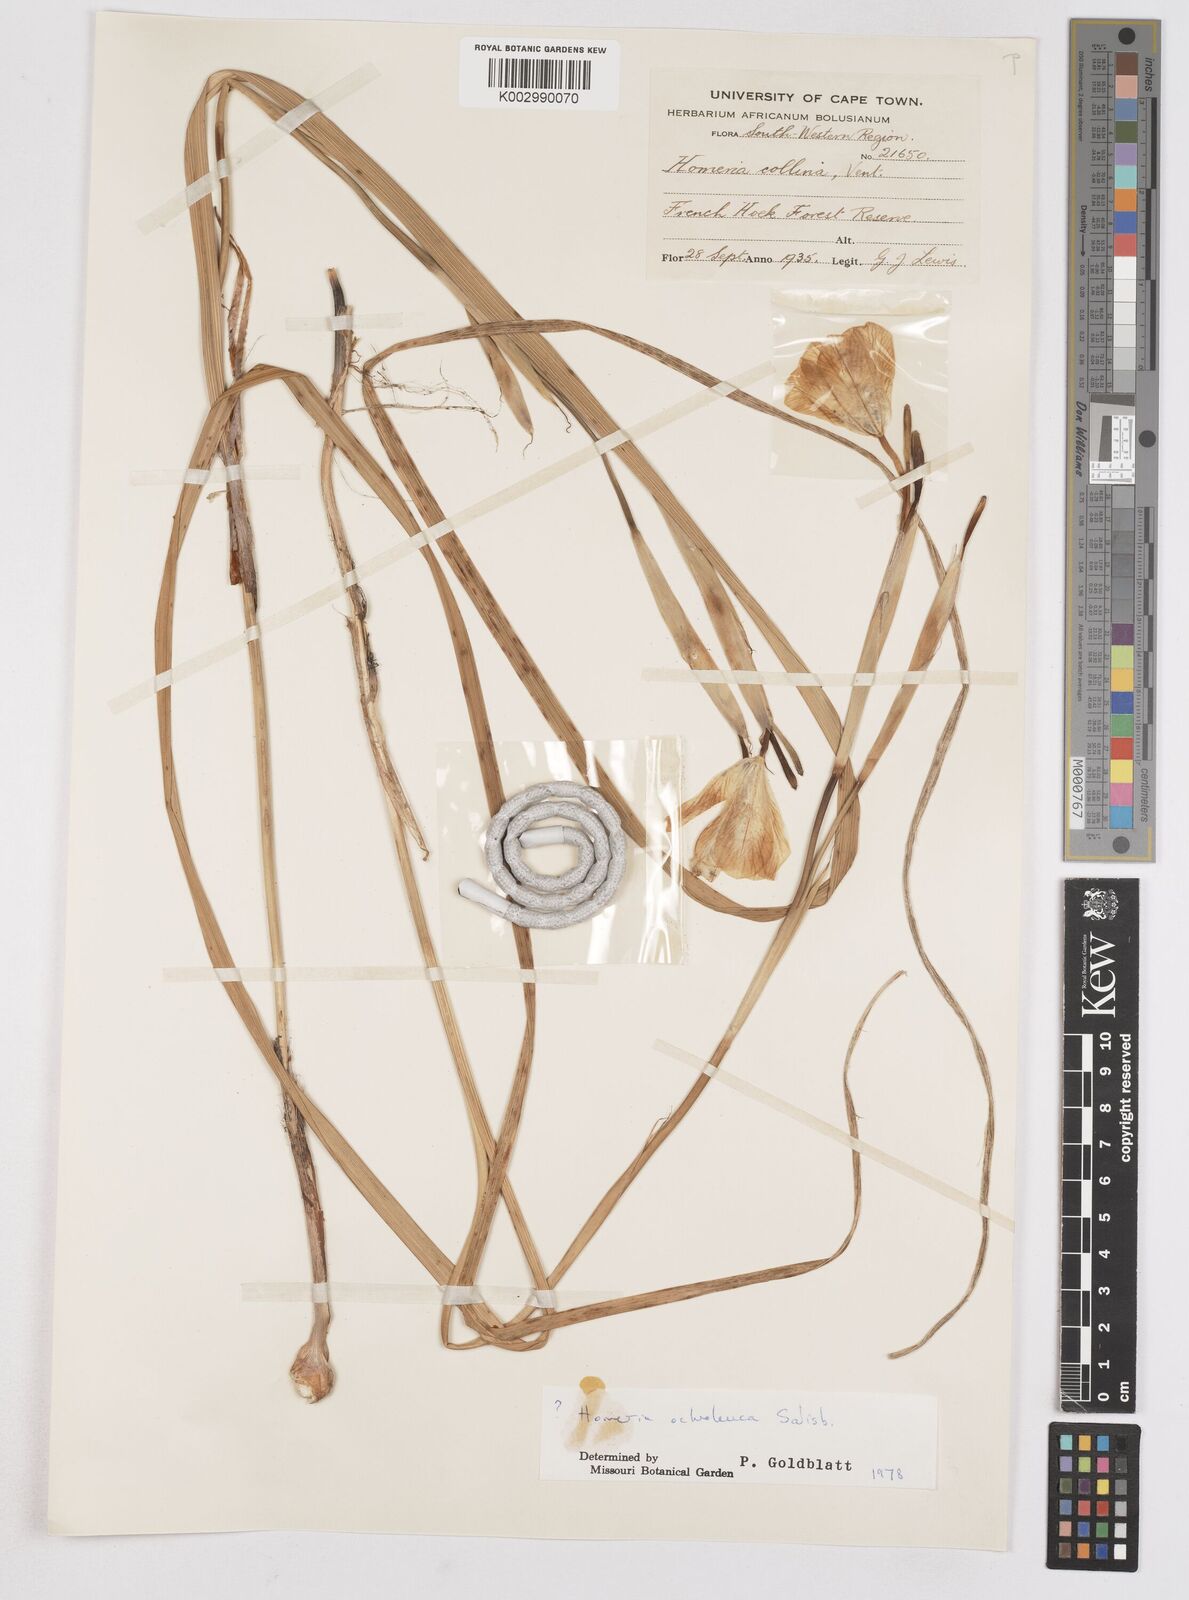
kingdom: Plantae
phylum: Tracheophyta
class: Liliopsida
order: Asparagales
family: Iridaceae
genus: Moraea
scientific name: Moraea ochroleuca
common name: Red tulp
